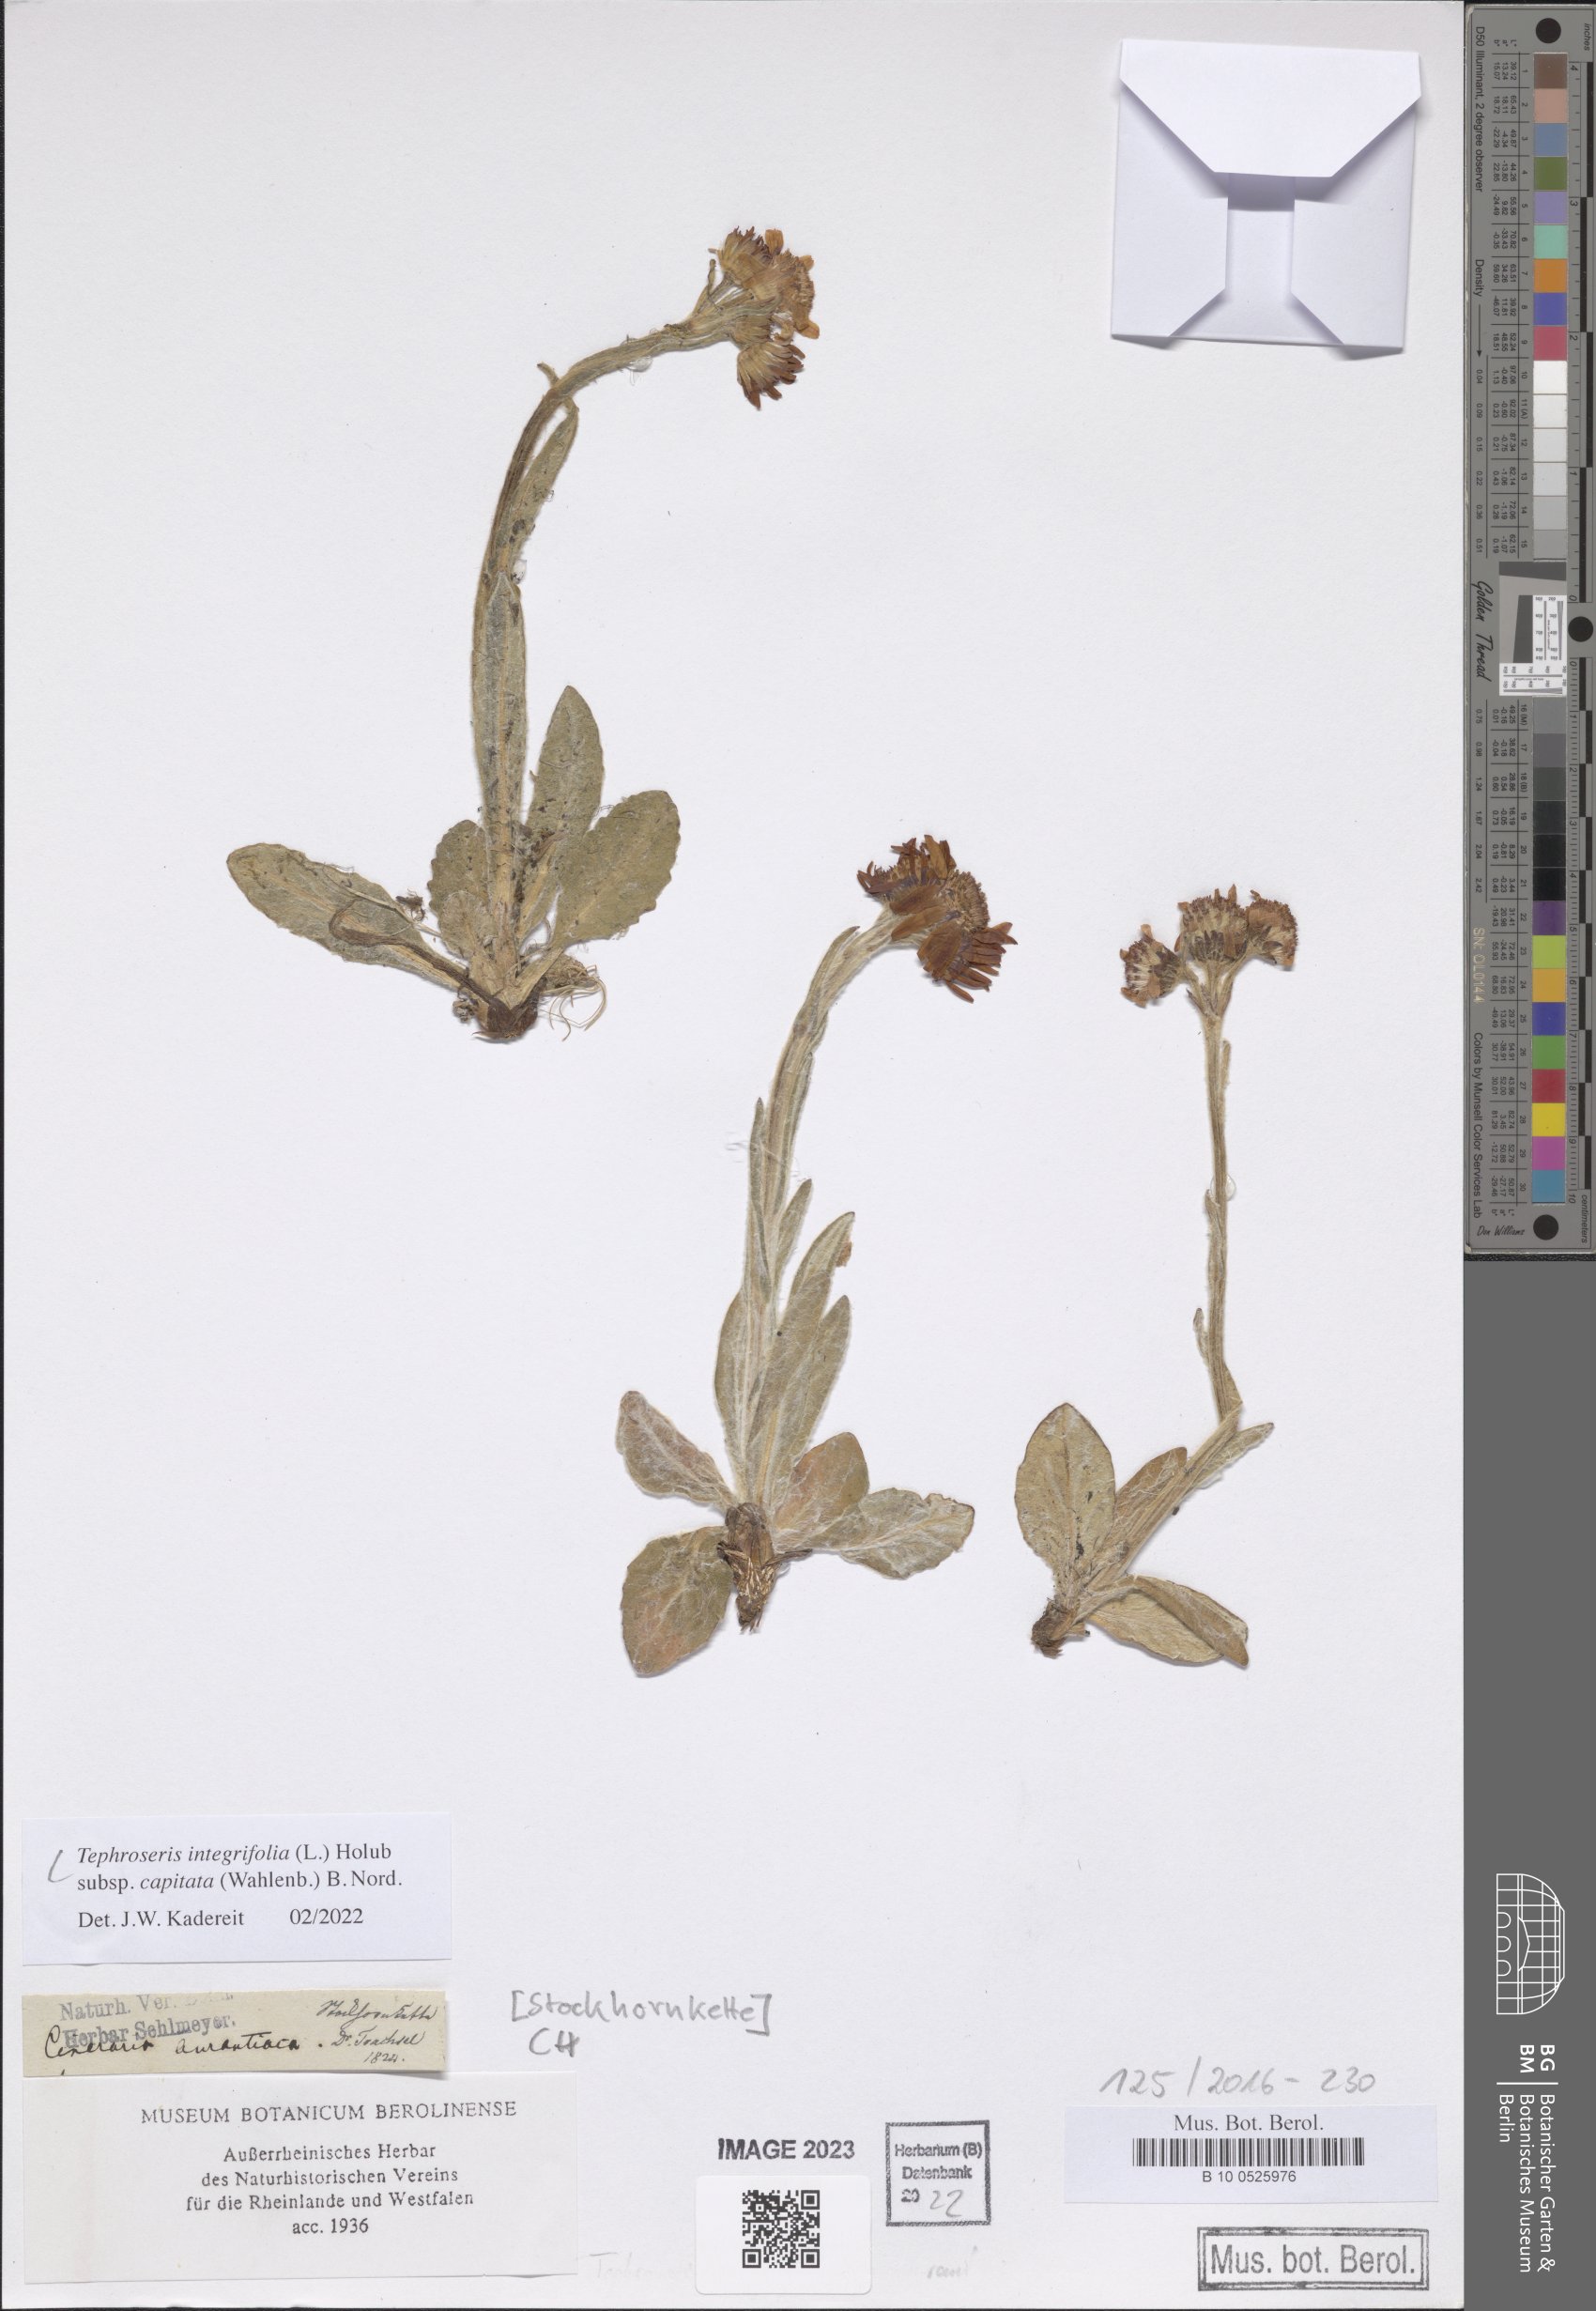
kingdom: Plantae
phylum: Tracheophyta
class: Magnoliopsida
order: Asterales
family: Asteraceae
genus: Tephroseris
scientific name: Tephroseris integrifolia
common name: Field fleawort
